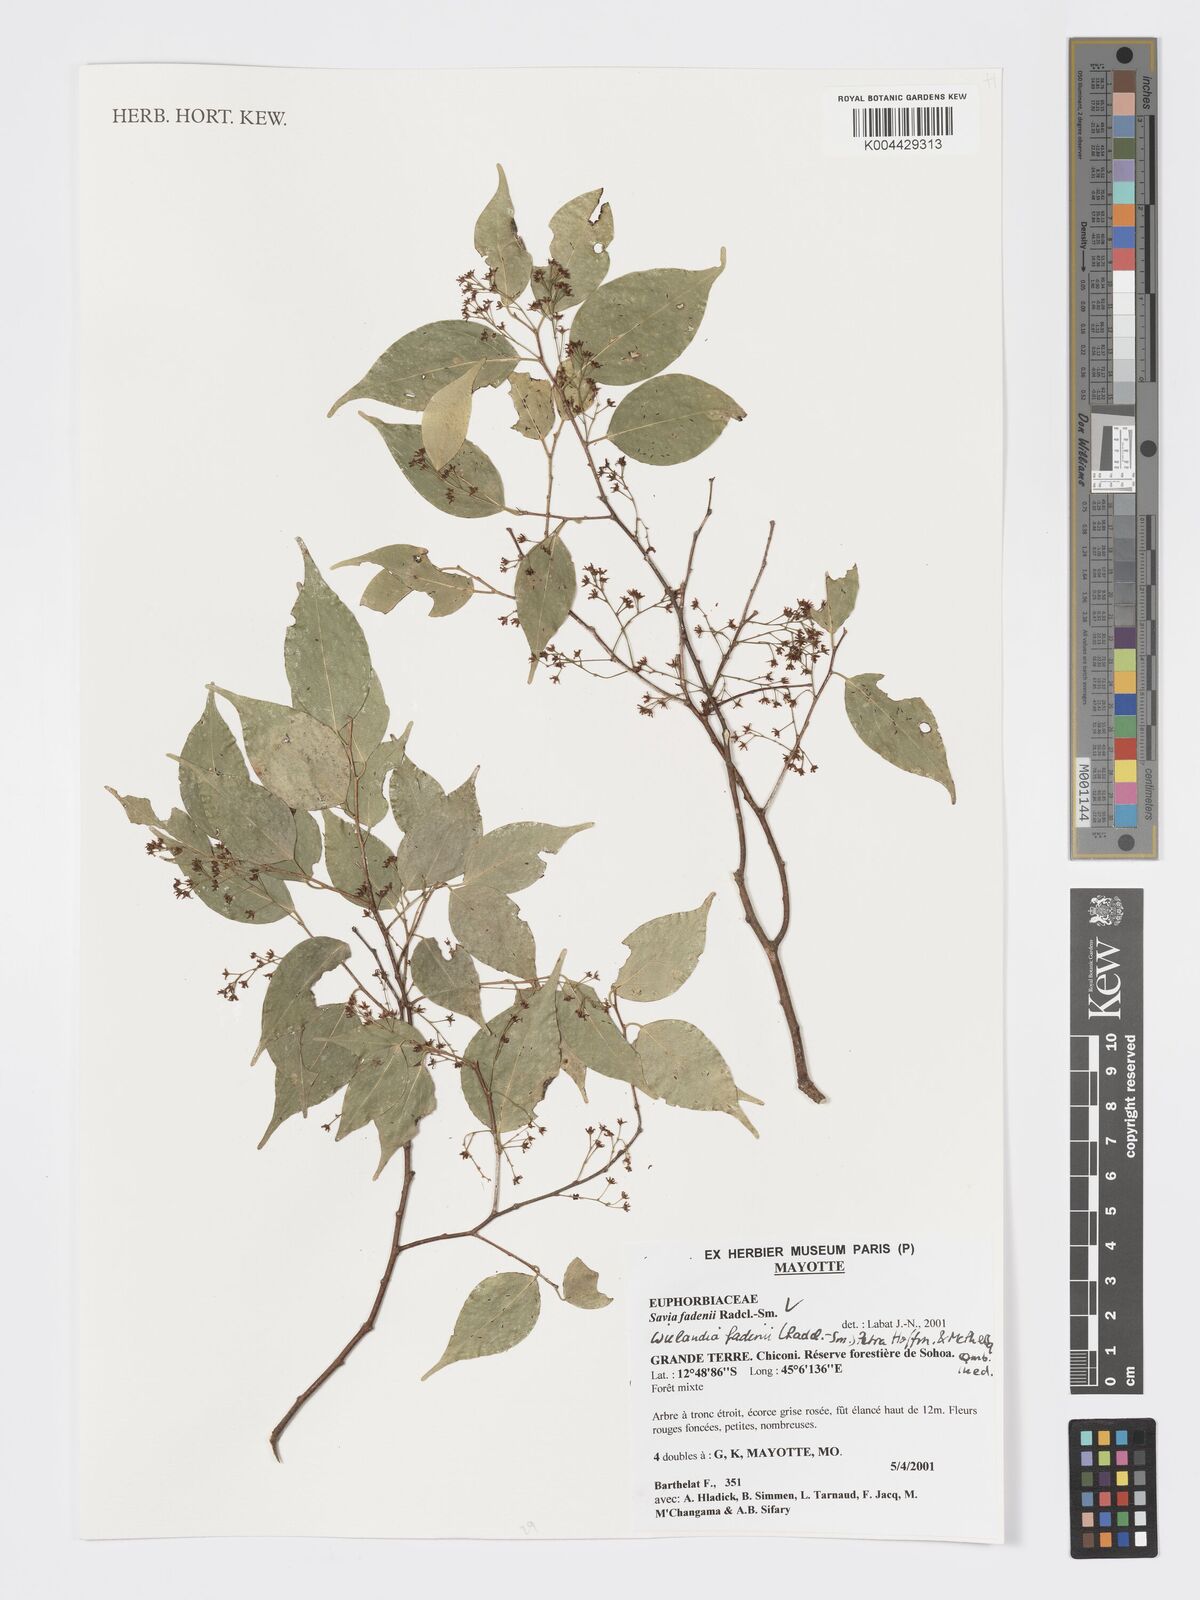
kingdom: Plantae
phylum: Tracheophyta
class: Magnoliopsida
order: Malpighiales
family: Phyllanthaceae
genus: Wielandia
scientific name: Wielandia fadenii
